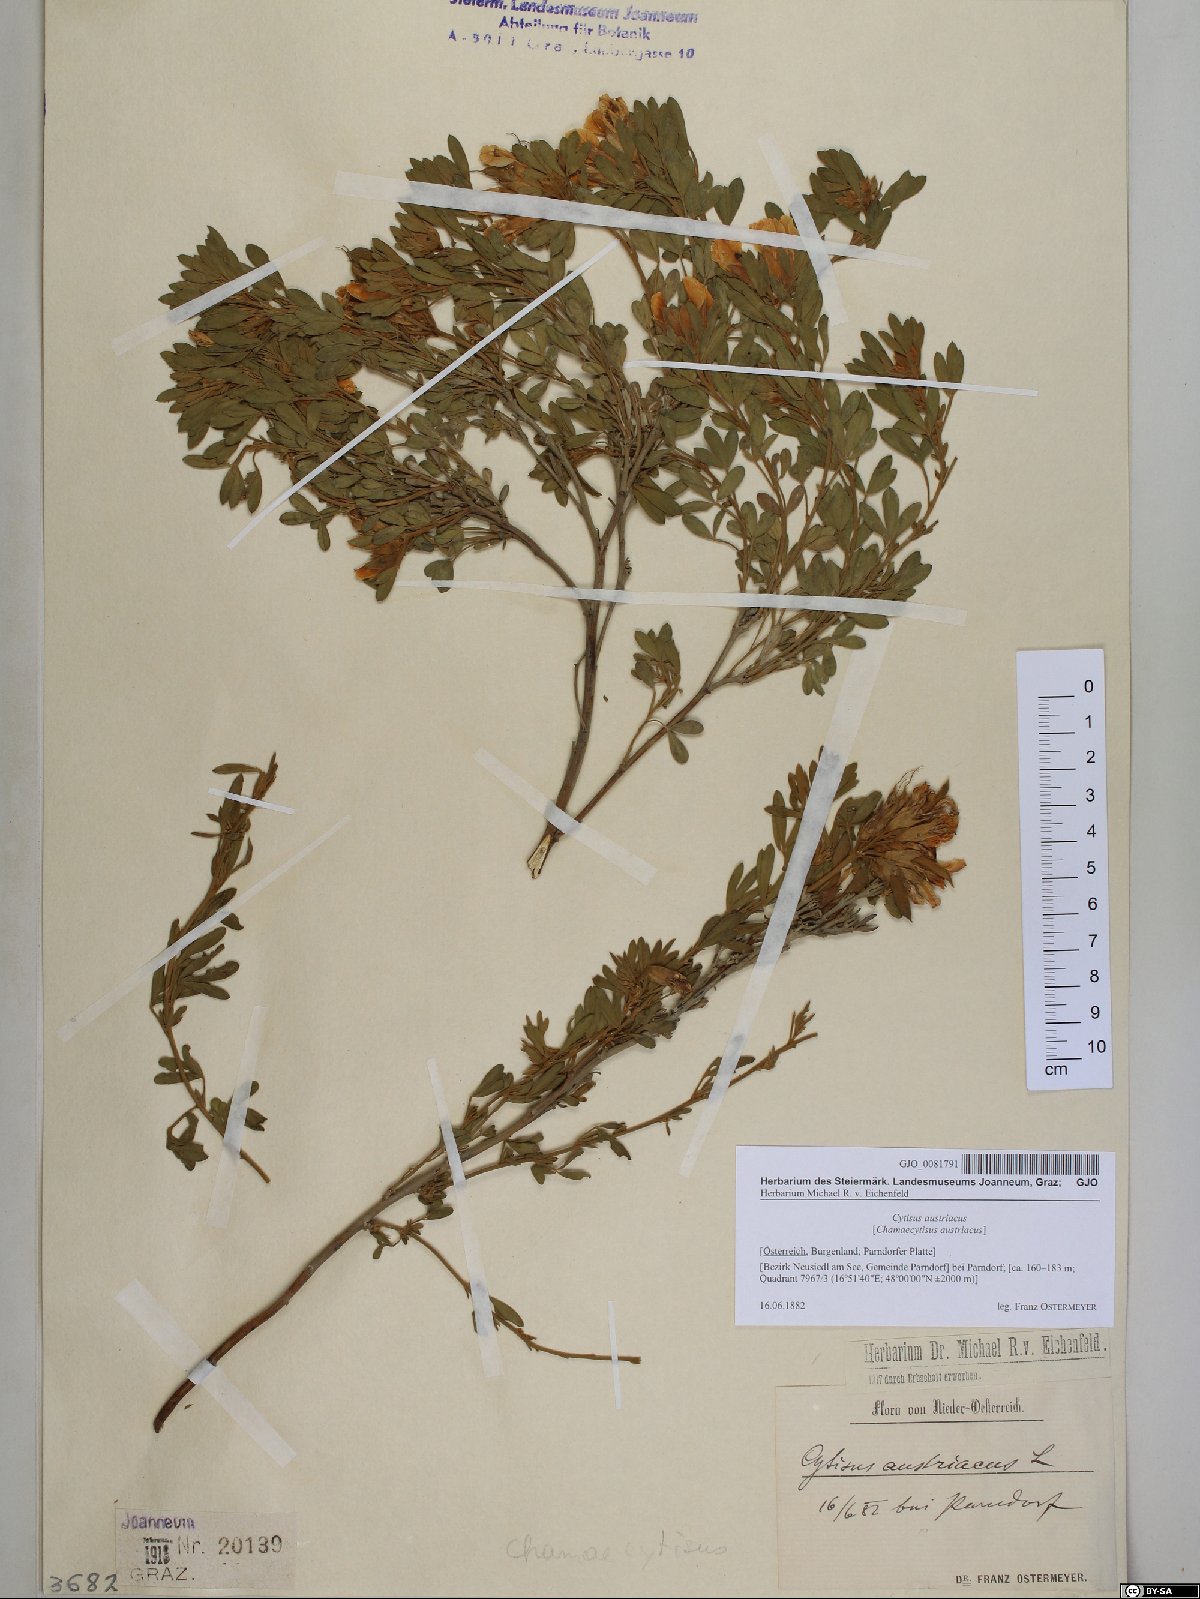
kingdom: Plantae
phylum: Tracheophyta
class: Magnoliopsida
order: Fabales
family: Fabaceae
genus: Chamaecytisus
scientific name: Chamaecytisus austriacus
